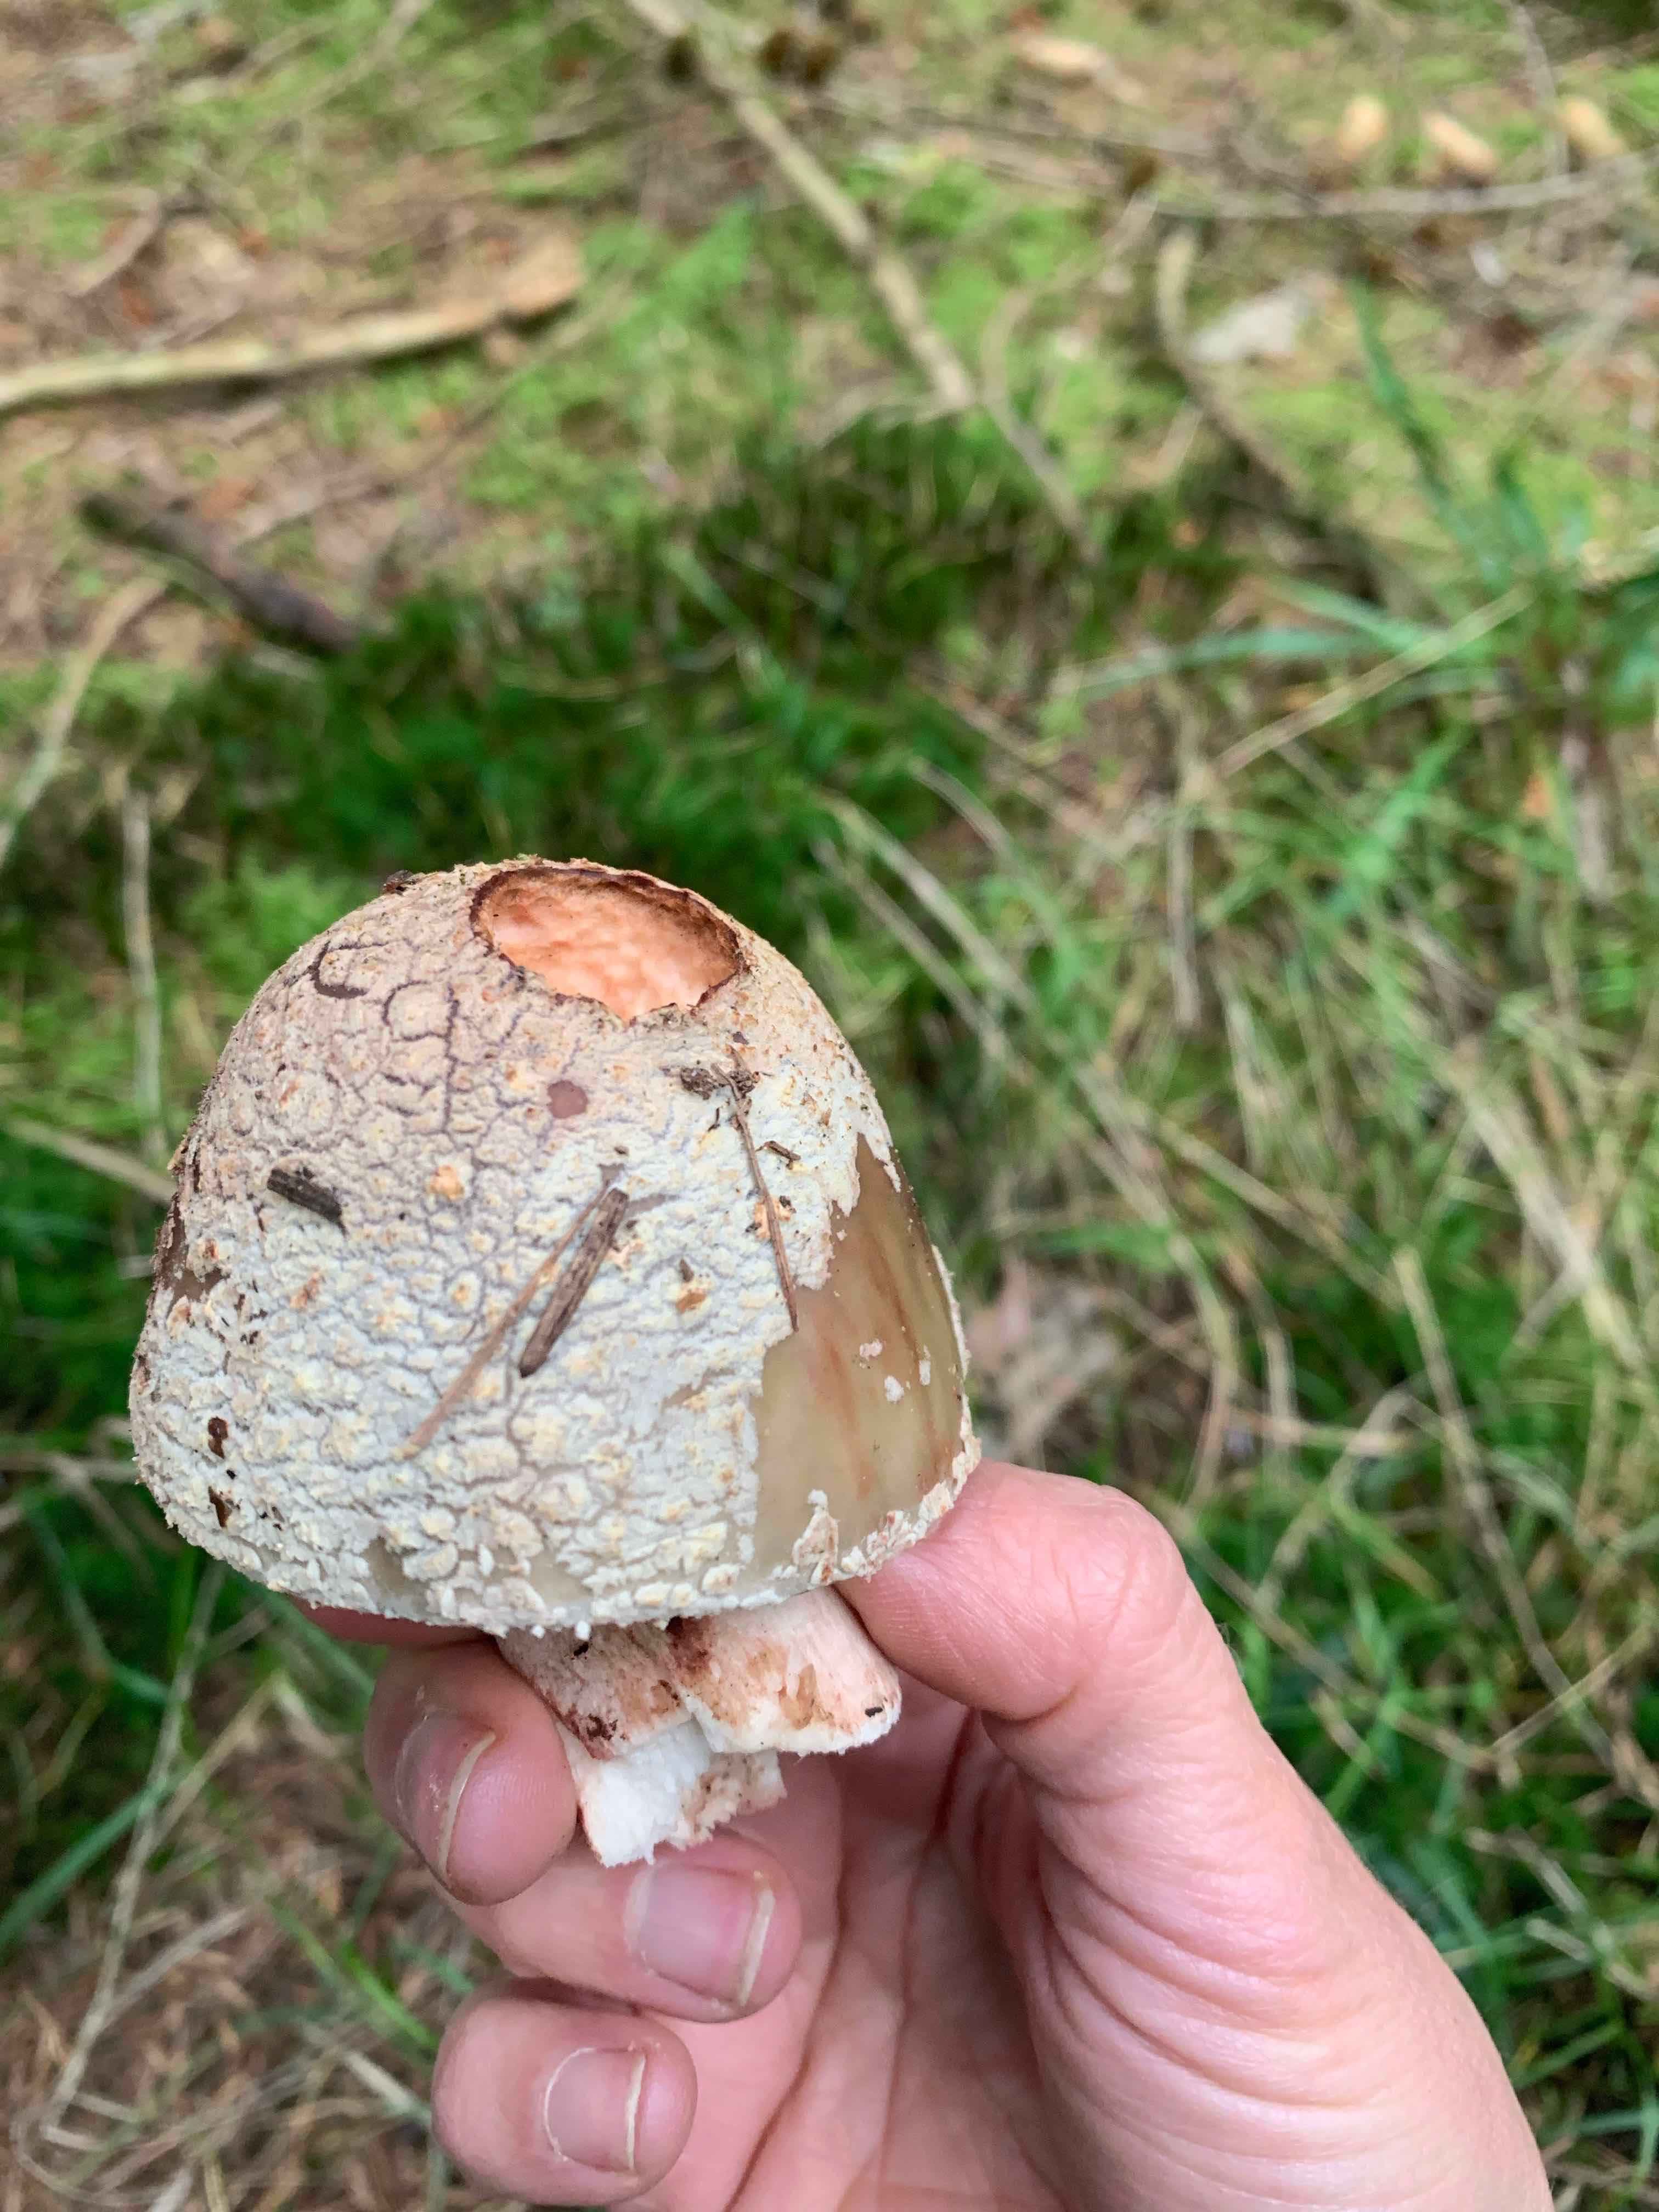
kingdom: Fungi
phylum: Basidiomycota
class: Agaricomycetes
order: Agaricales
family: Amanitaceae
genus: Amanita
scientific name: Amanita rubescens
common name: rødmende fluesvamp
